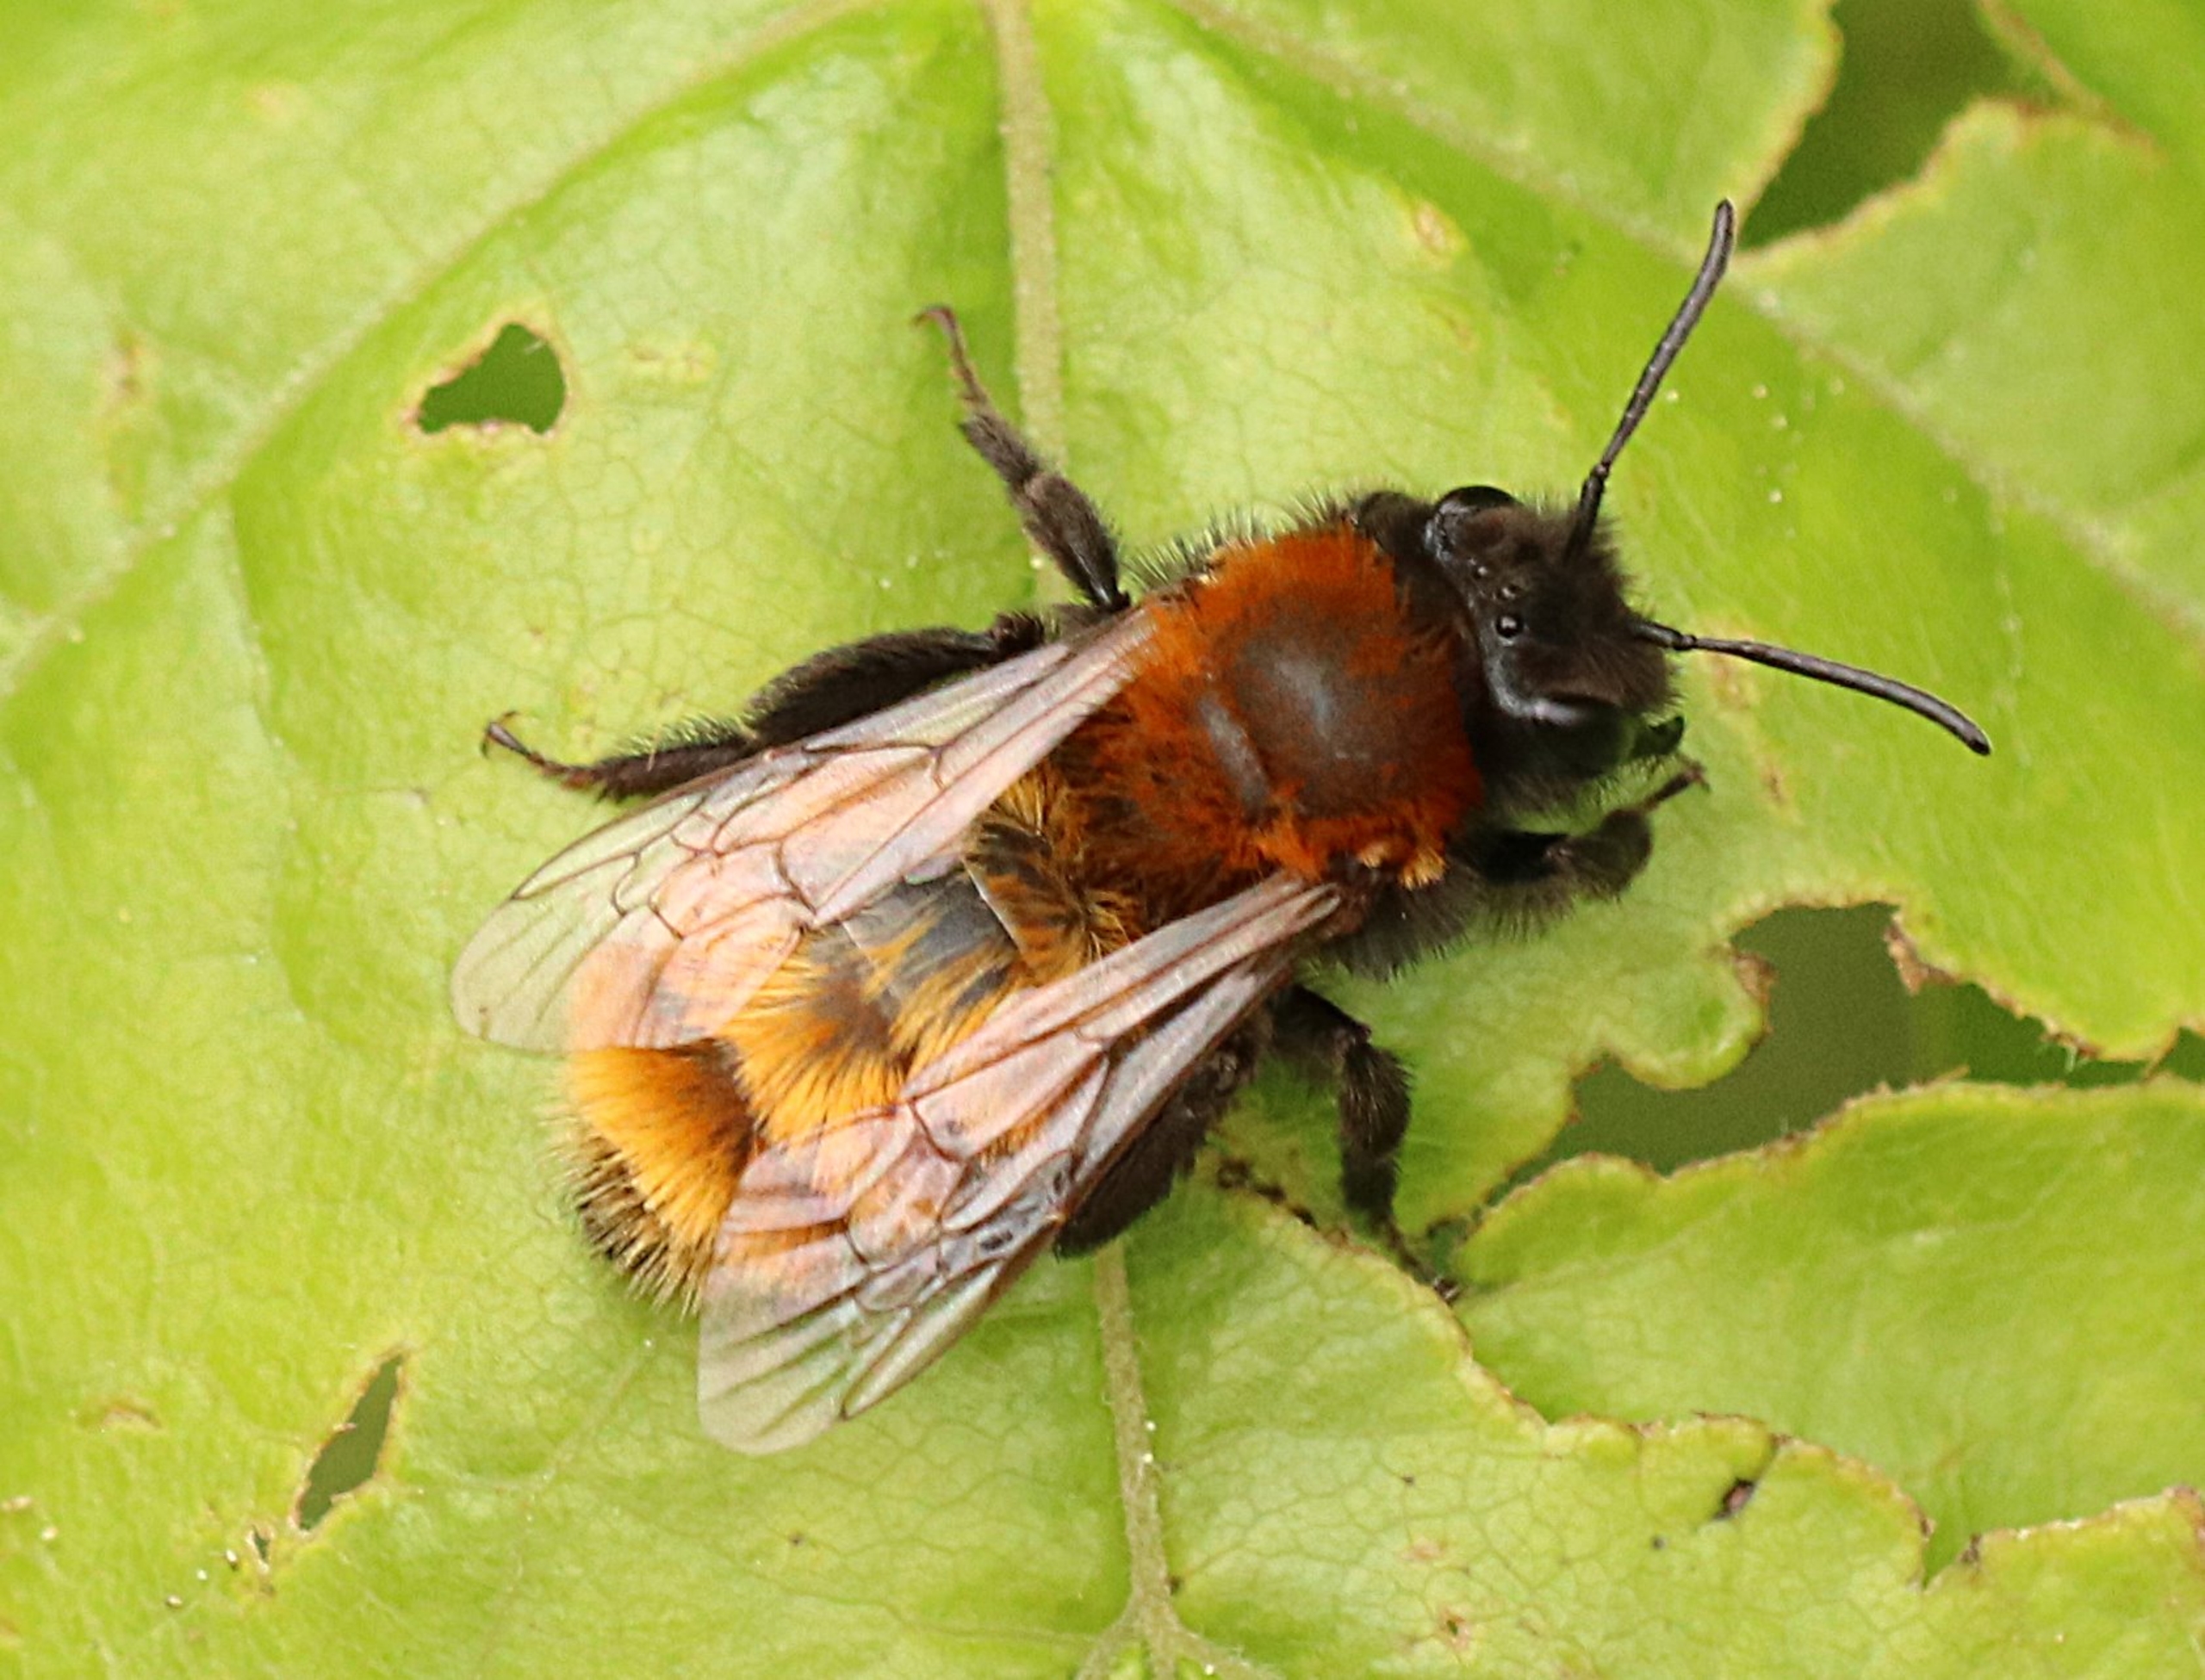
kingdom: Animalia
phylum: Arthropoda
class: Insecta
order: Hymenoptera
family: Andrenidae
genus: Andrena
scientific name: Andrena fulva
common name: Rødpelset jordbi
